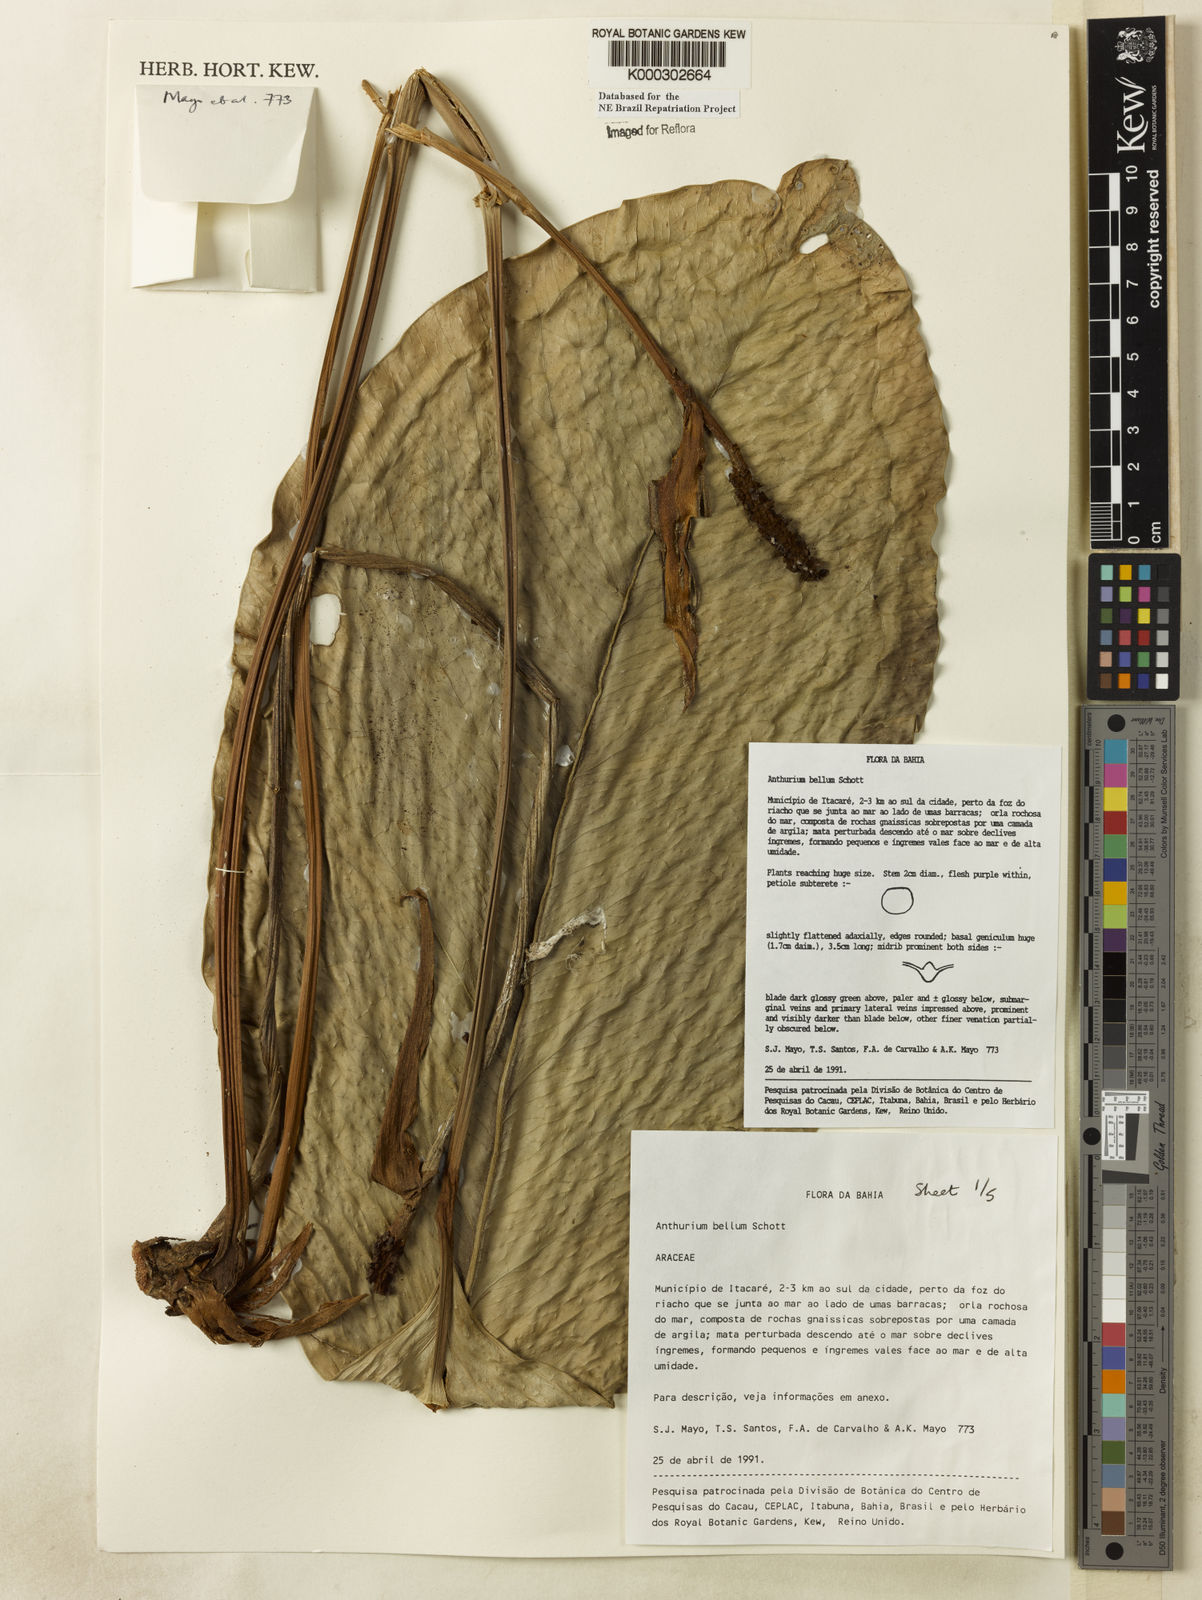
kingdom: Plantae
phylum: Tracheophyta
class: Liliopsida
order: Alismatales
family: Araceae
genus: Anthurium
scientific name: Anthurium bellum
